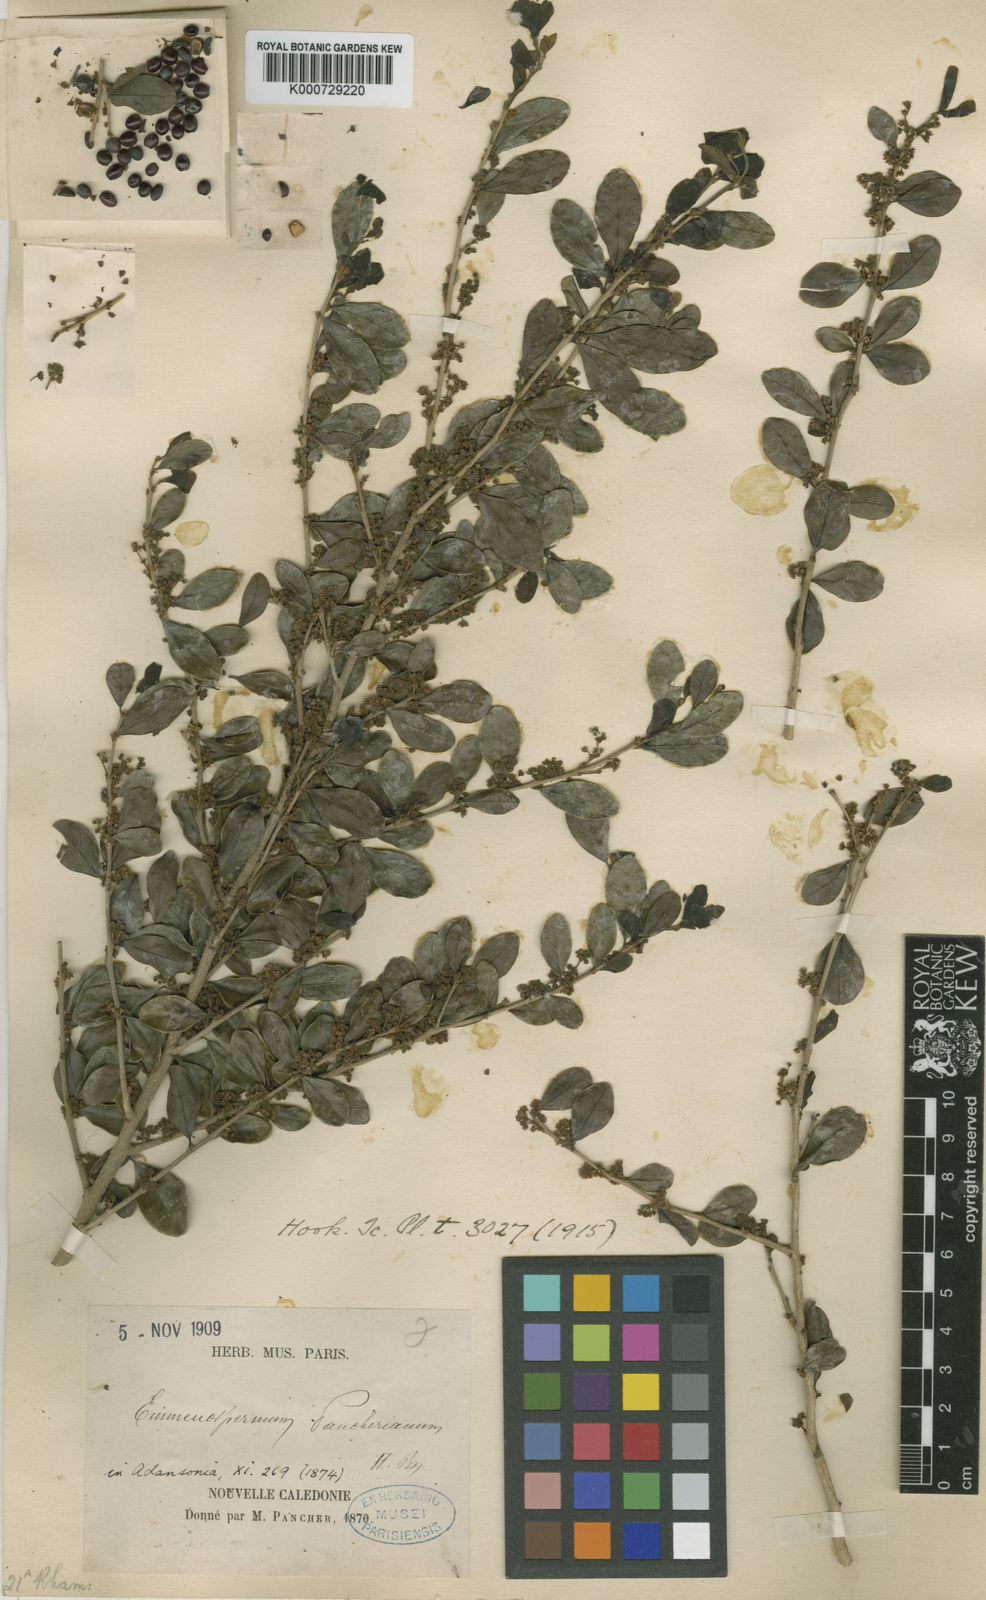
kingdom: Plantae
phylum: Tracheophyta
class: Magnoliopsida
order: Rosales
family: Rhamnaceae
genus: Emmenosperma
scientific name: Emmenosperma pancherianum
